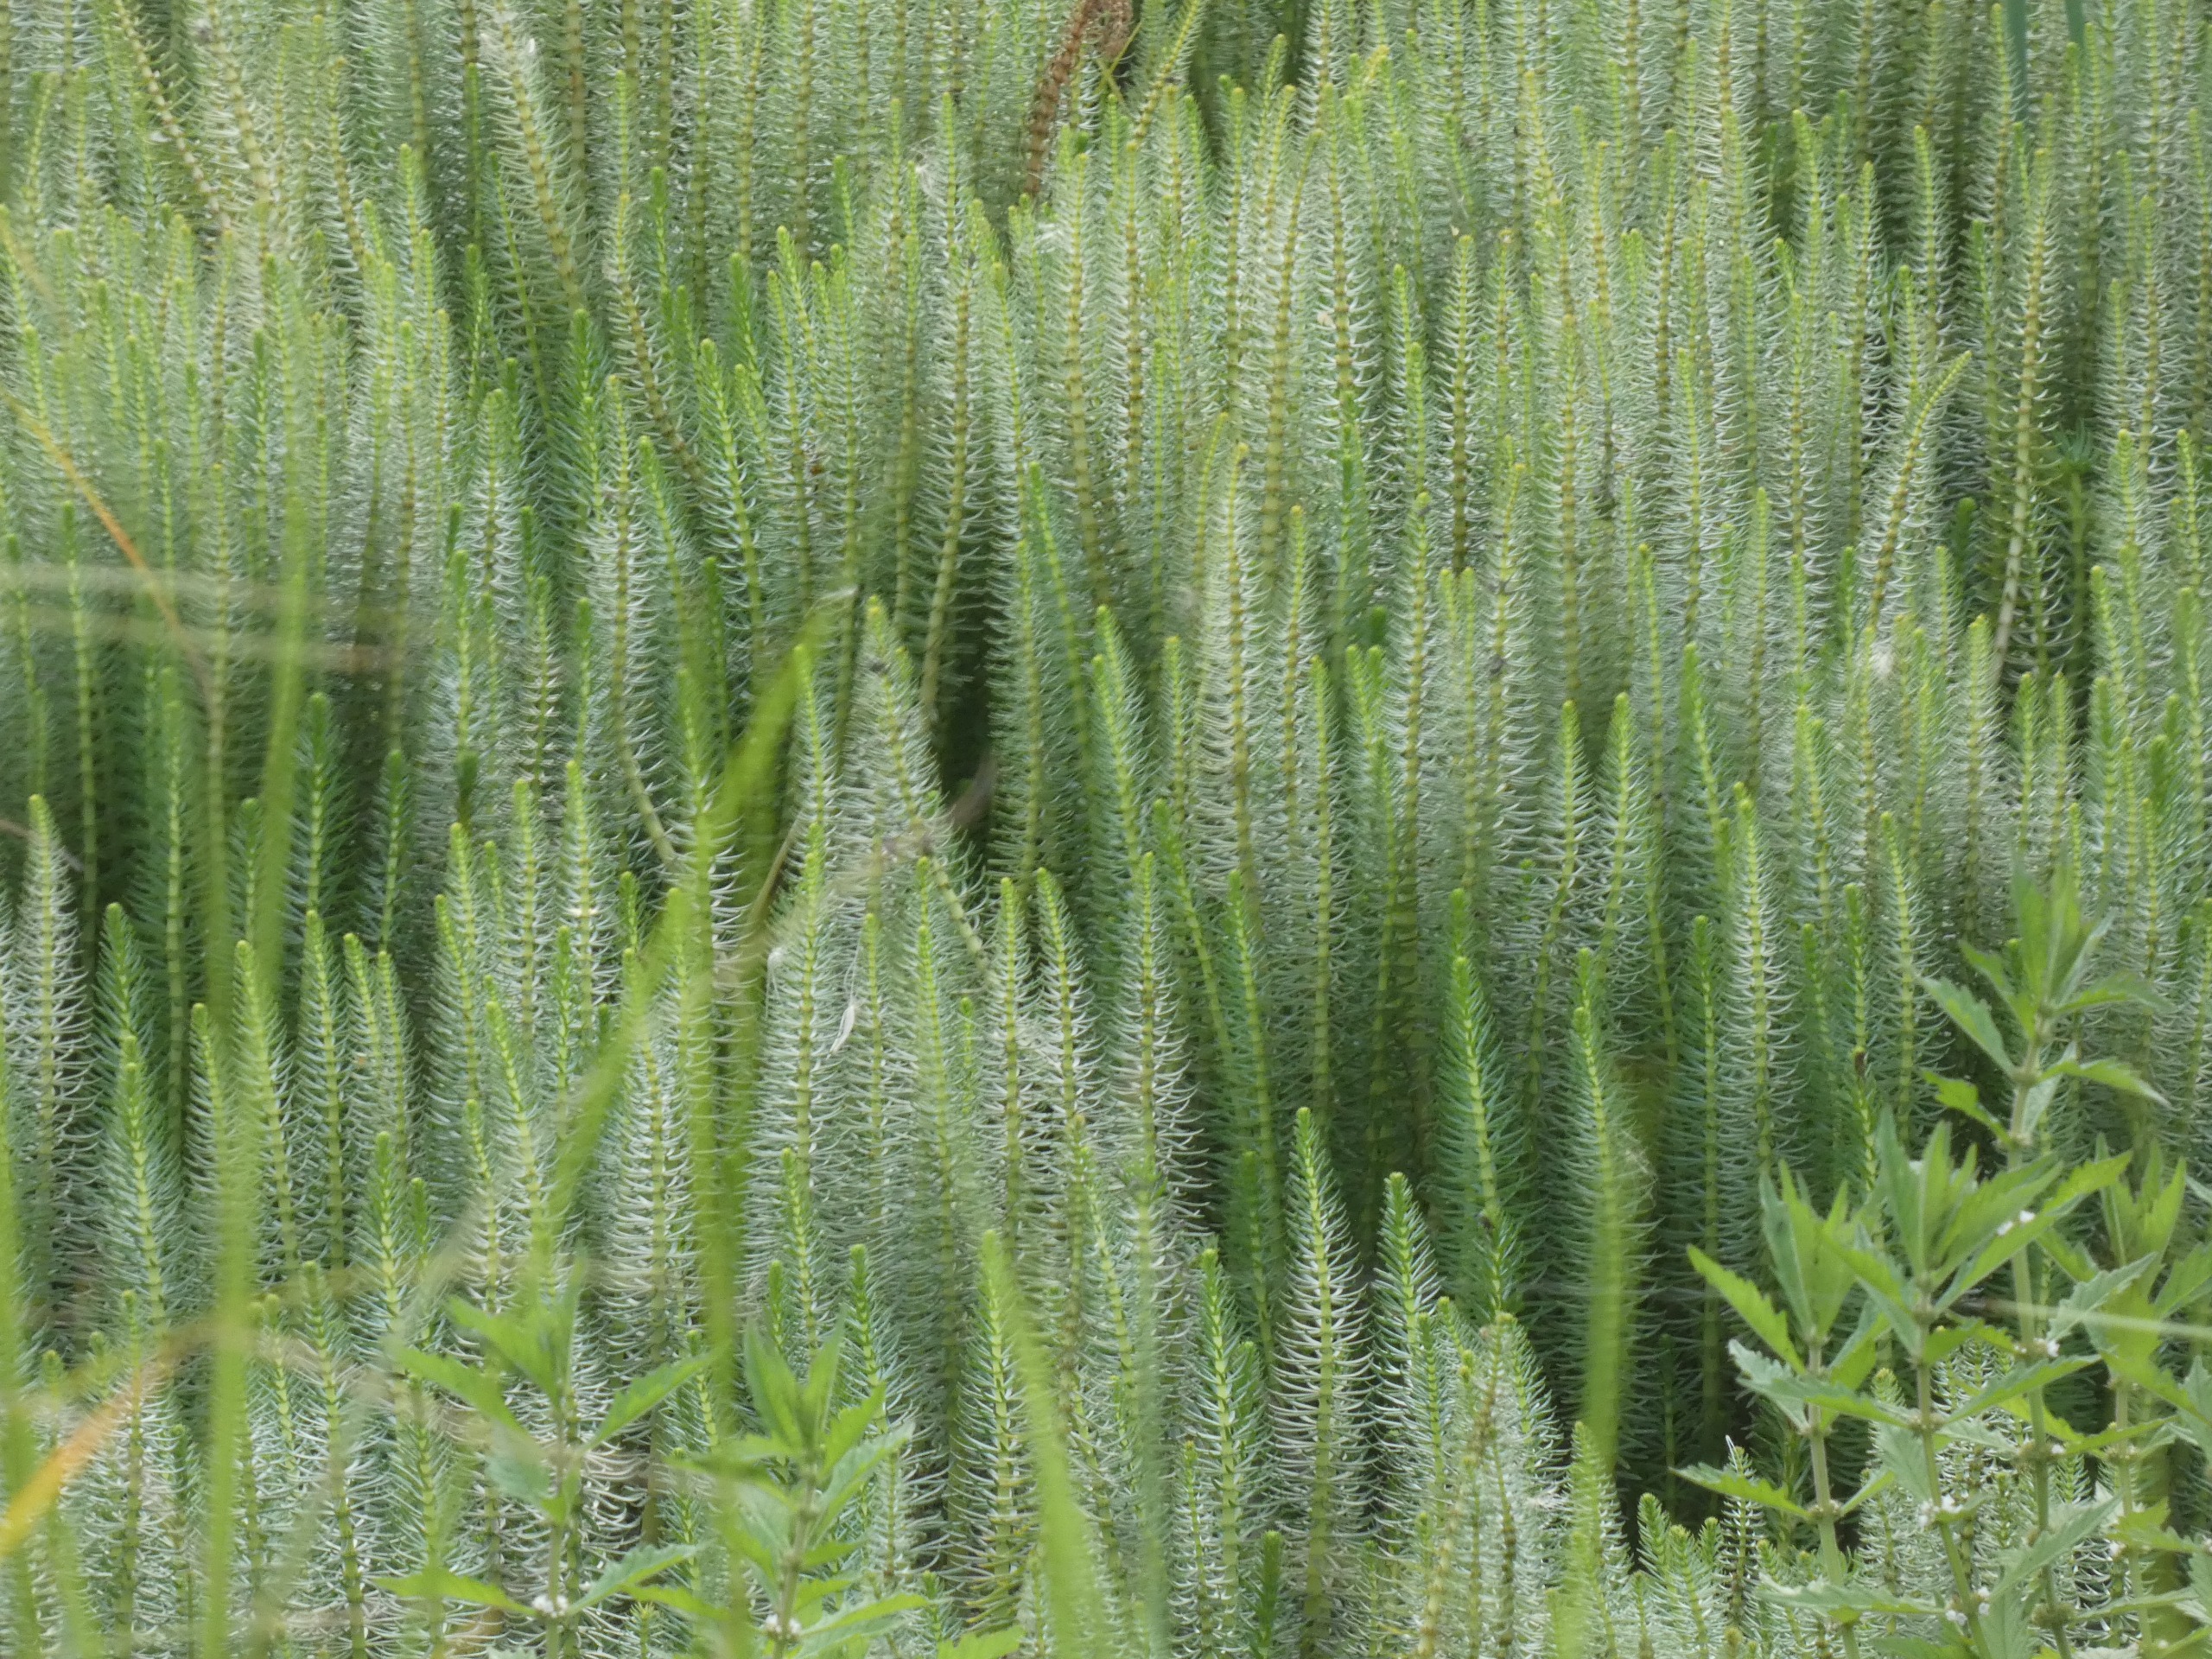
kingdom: Plantae
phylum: Tracheophyta
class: Magnoliopsida
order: Lamiales
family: Plantaginaceae
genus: Hippuris
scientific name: Hippuris vulgaris
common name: Vandspir
